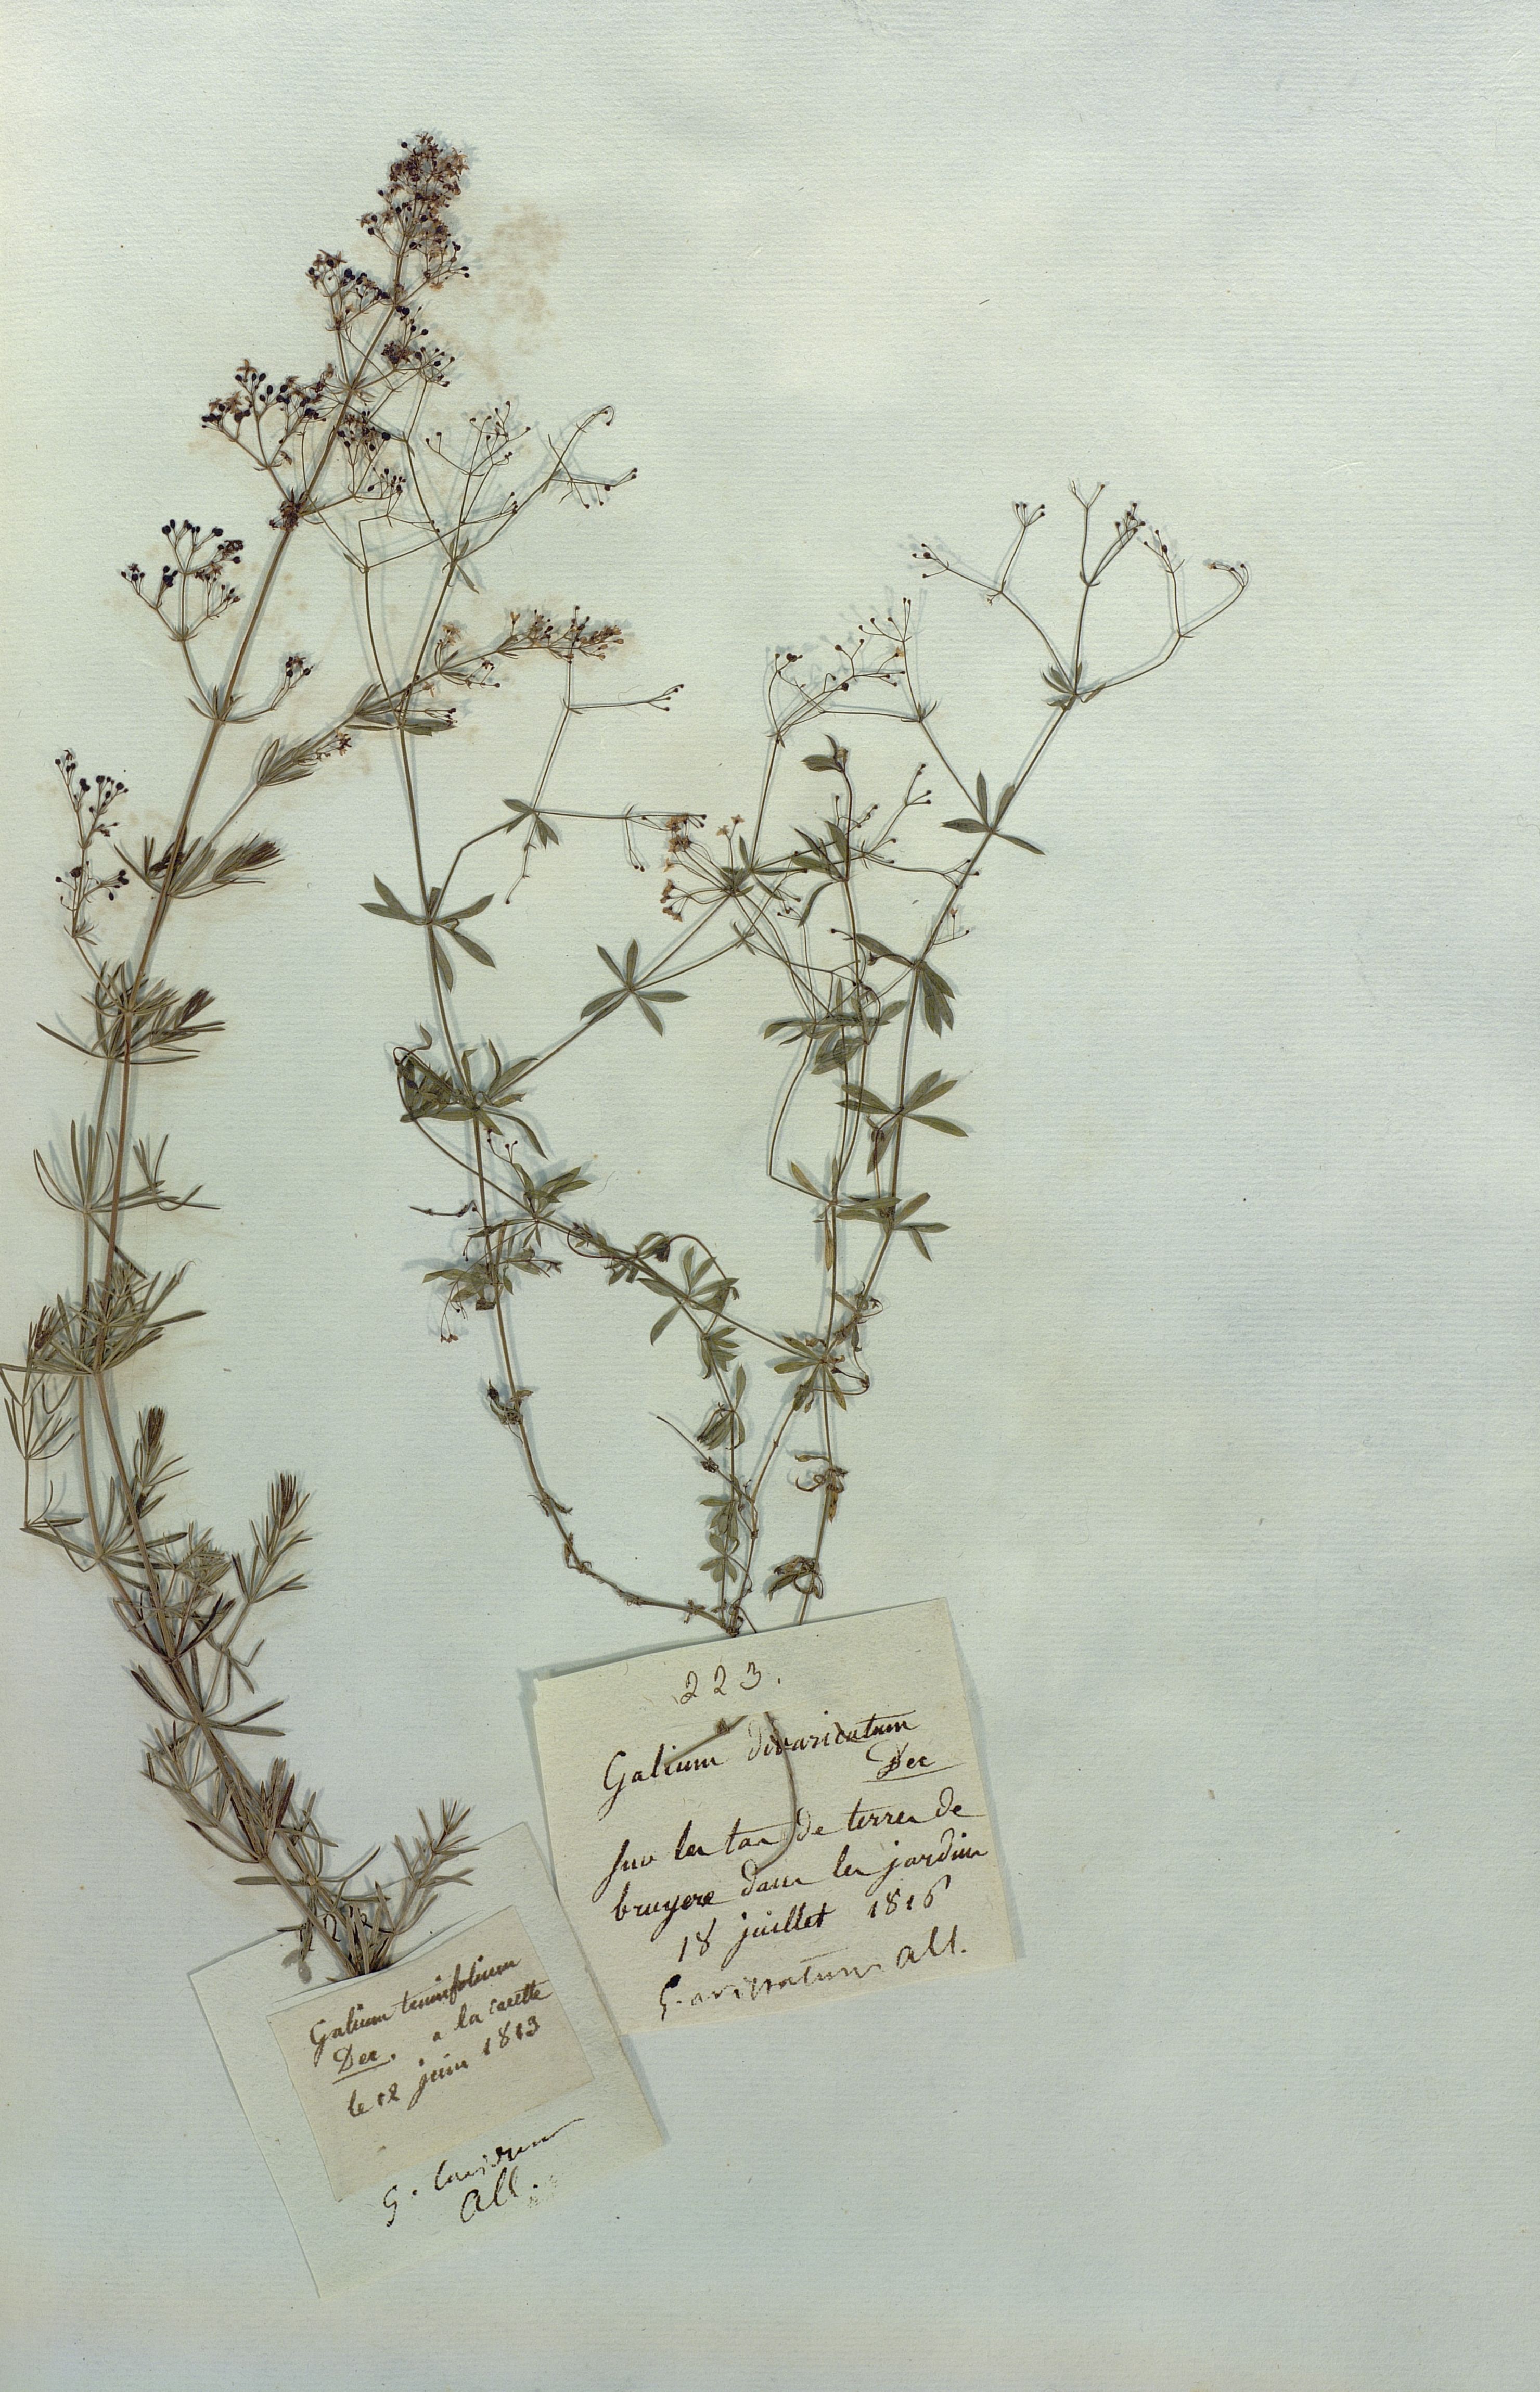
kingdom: Plantae
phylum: Tracheophyta
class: Magnoliopsida
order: Gentianales
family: Rubiaceae
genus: Galium
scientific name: Galium aristatum
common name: Awned bedstraw
